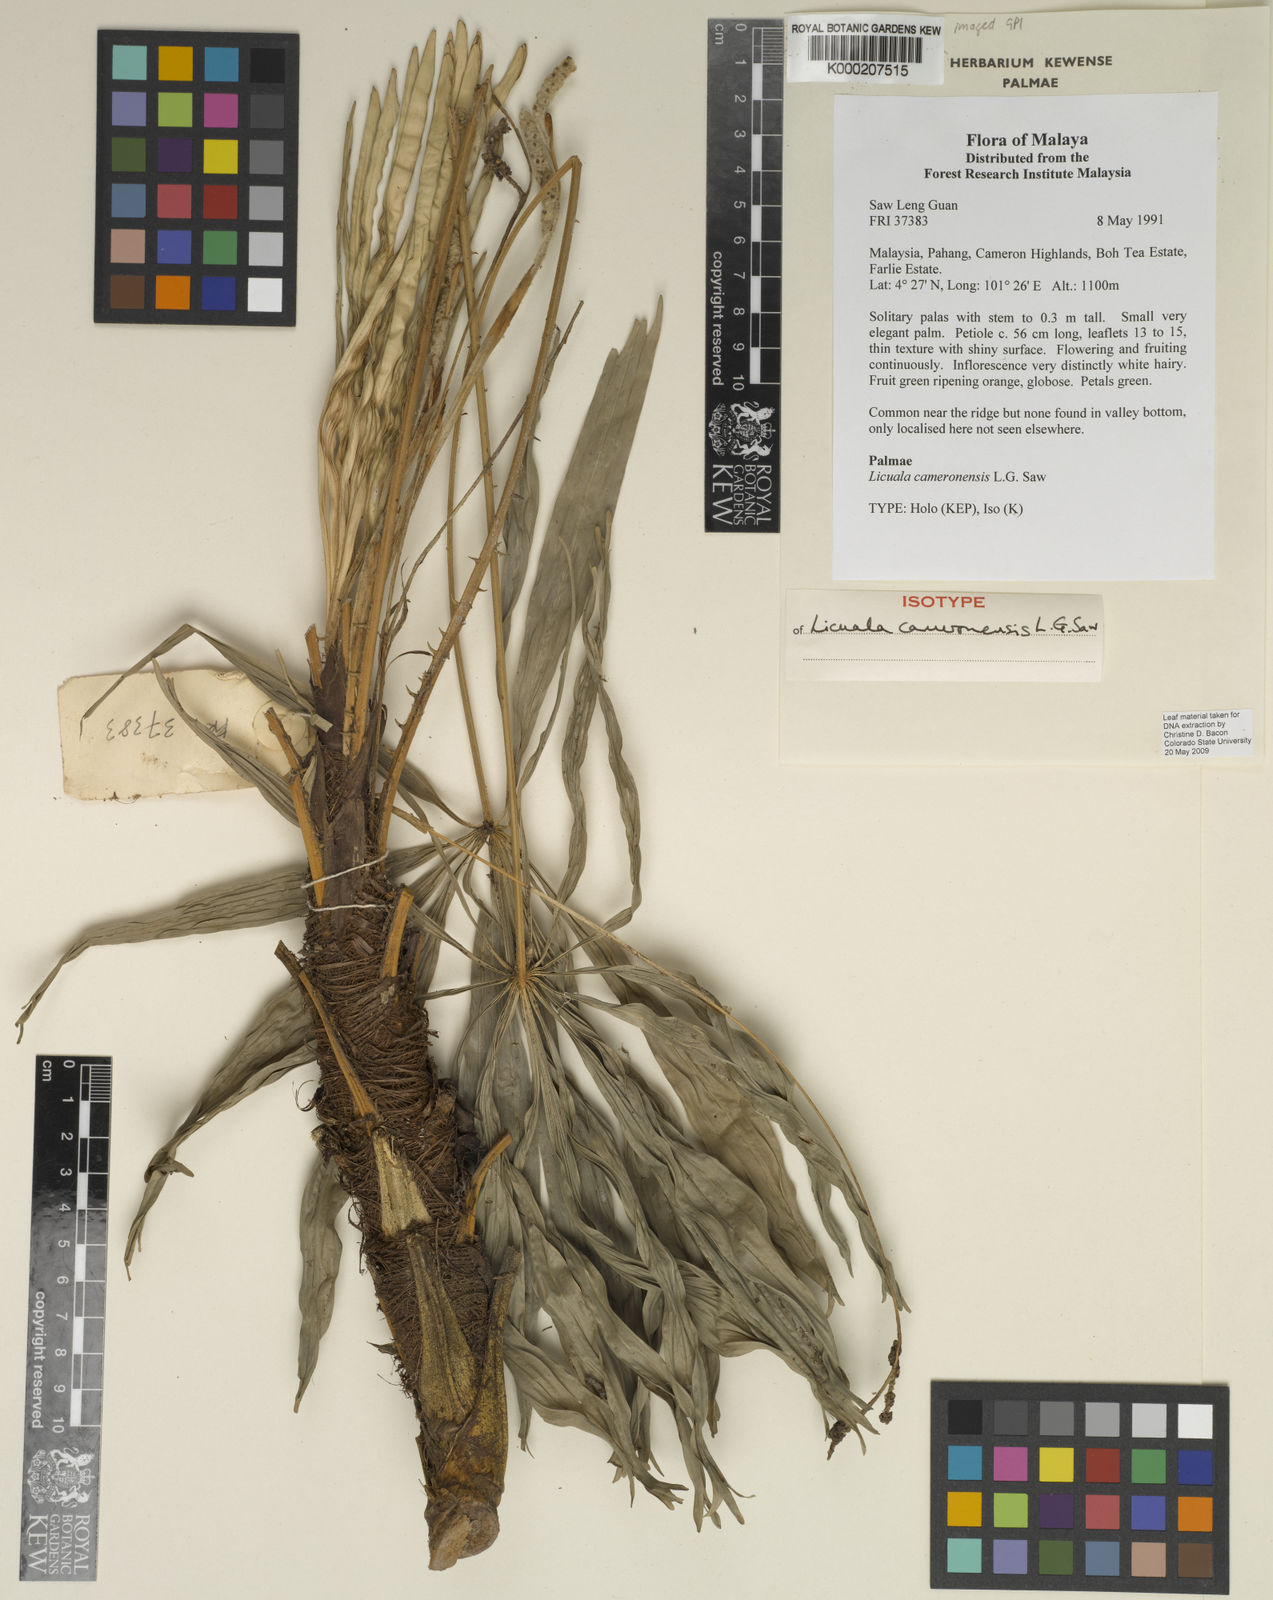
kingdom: Plantae
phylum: Tracheophyta
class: Liliopsida
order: Arecales
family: Arecaceae
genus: Licuala
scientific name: Licuala cameronensis
